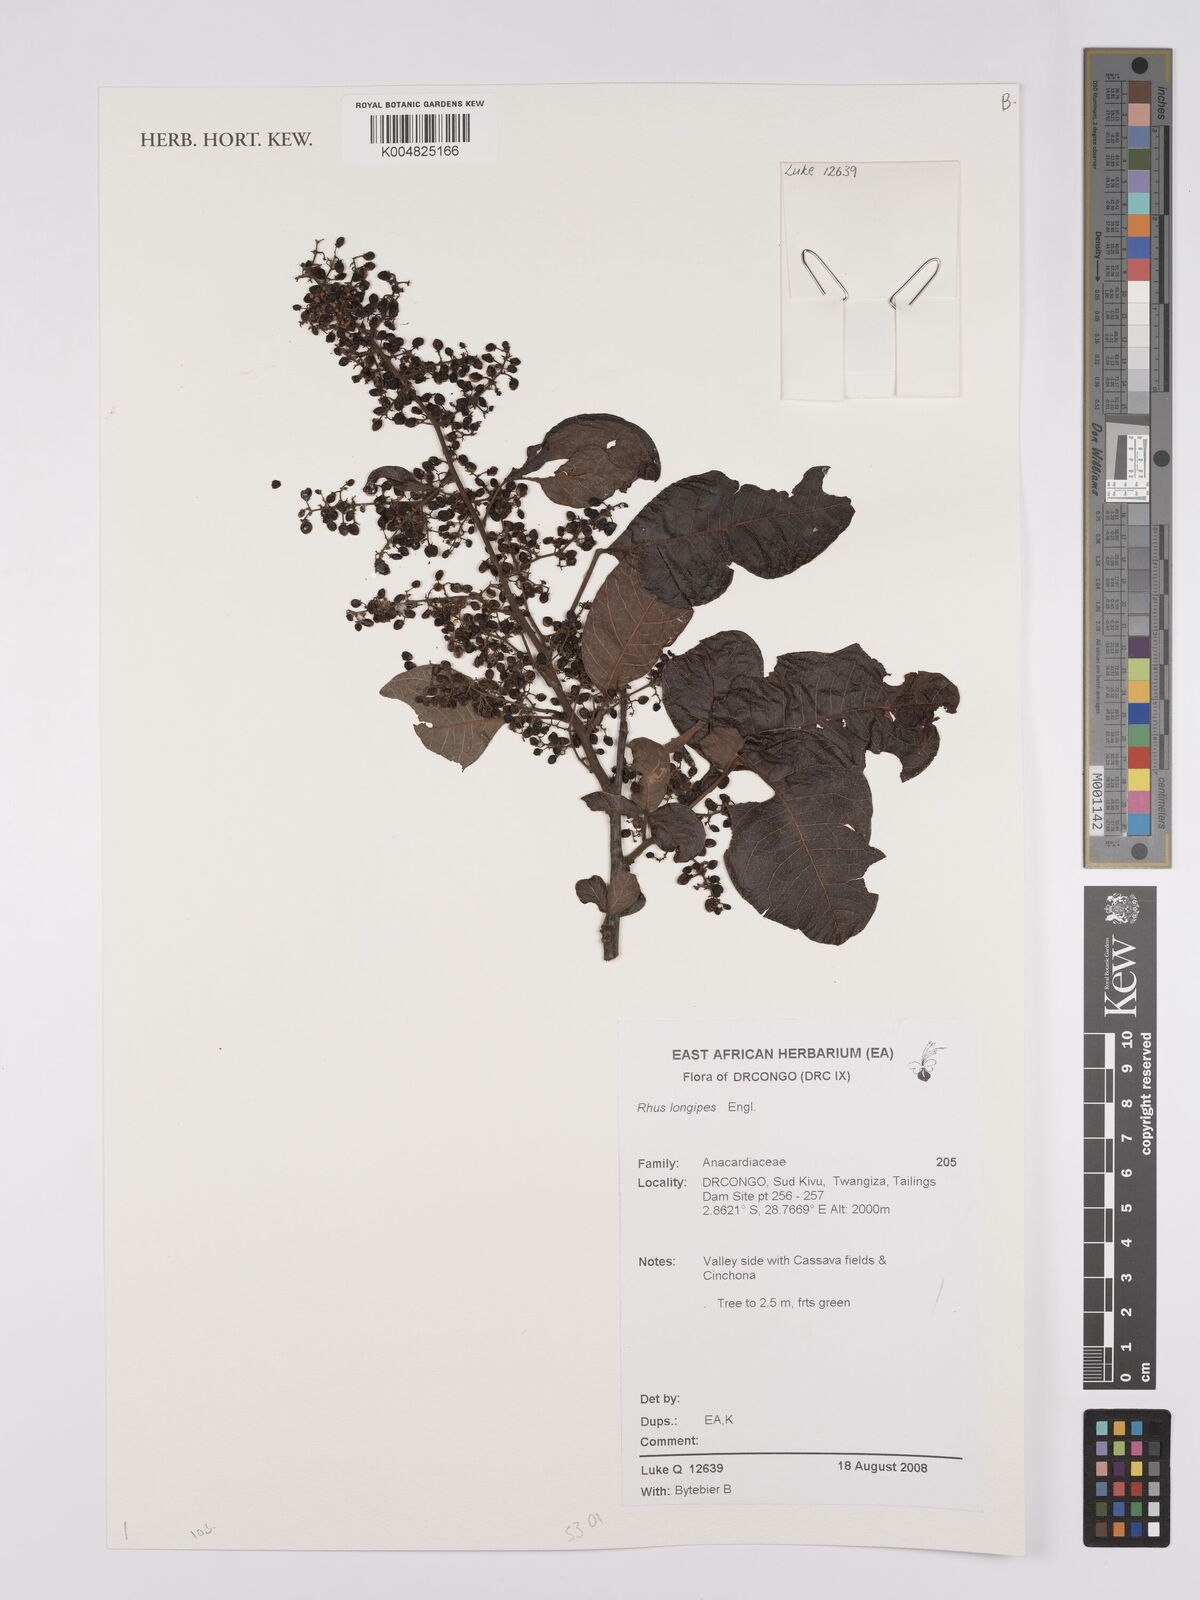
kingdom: Plantae
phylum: Tracheophyta
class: Magnoliopsida
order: Sapindales
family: Anacardiaceae
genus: Searsia
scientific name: Searsia longipes
